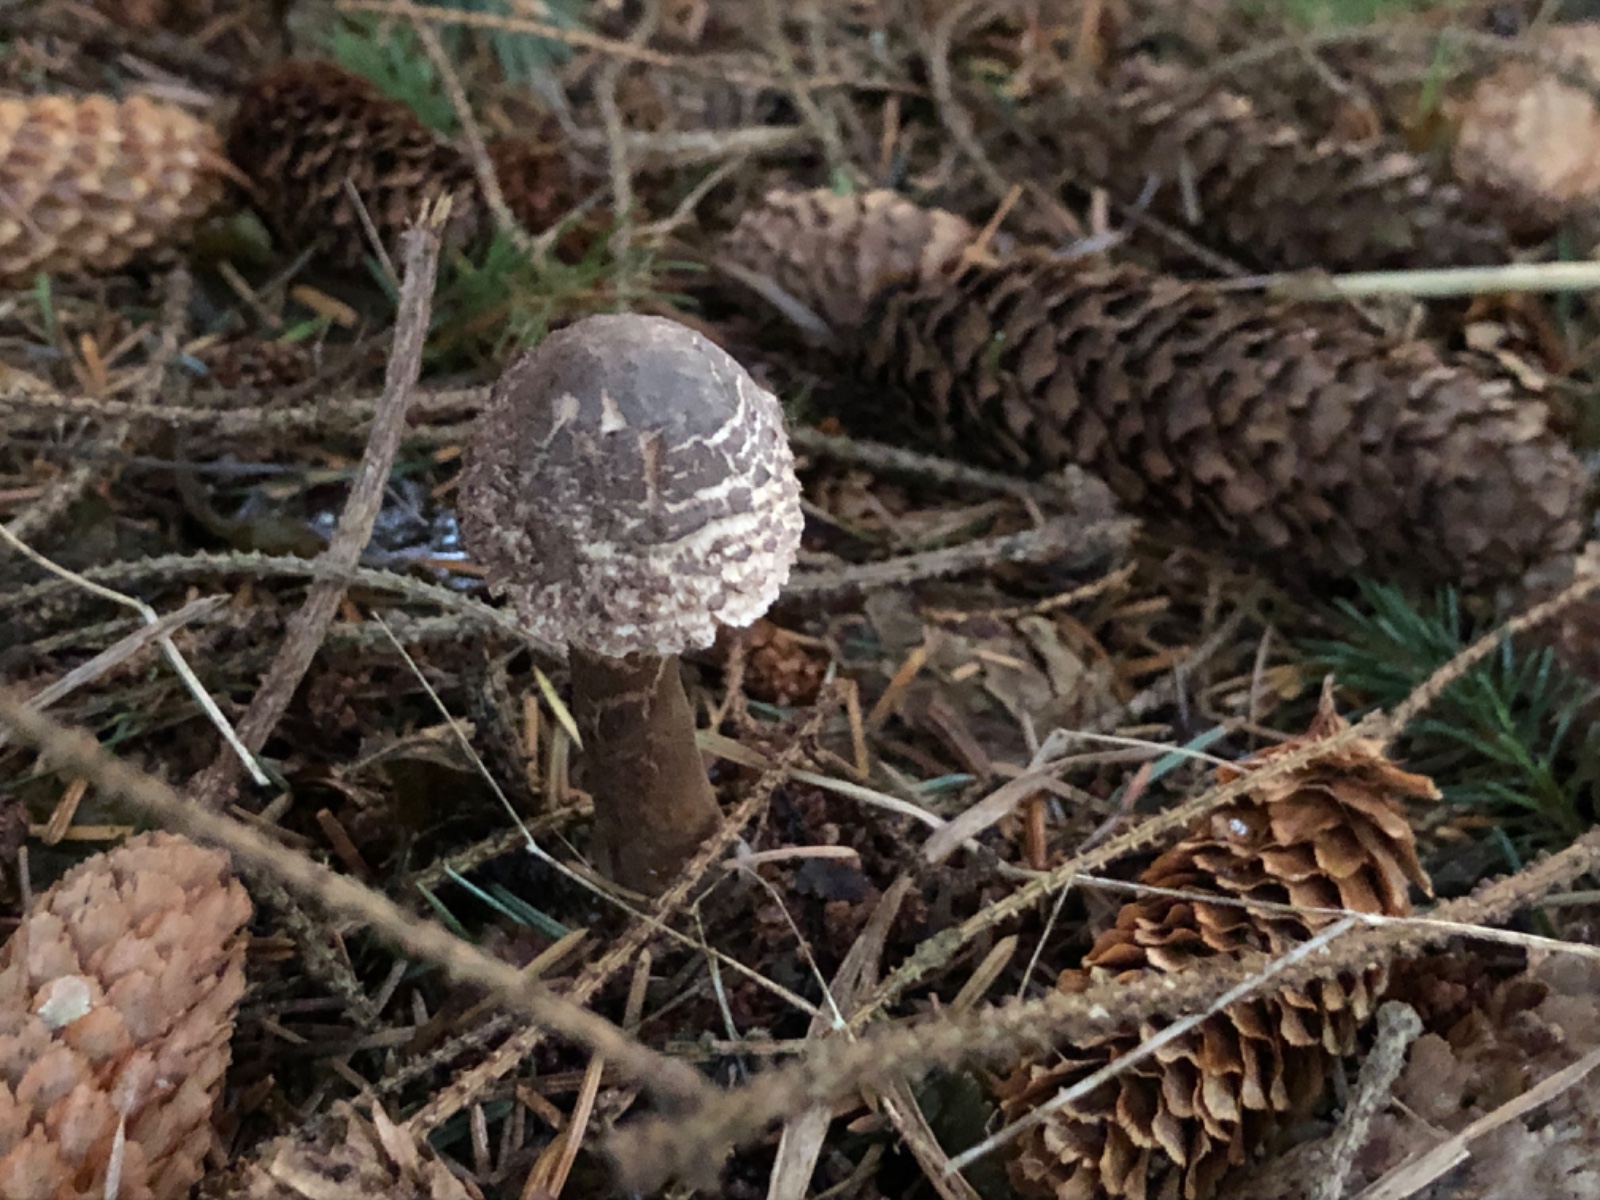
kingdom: Fungi
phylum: Basidiomycota
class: Agaricomycetes
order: Agaricales
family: Agaricaceae
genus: Leucoagaricus
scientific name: Leucoagaricus nympharum
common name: gran-silkehat
